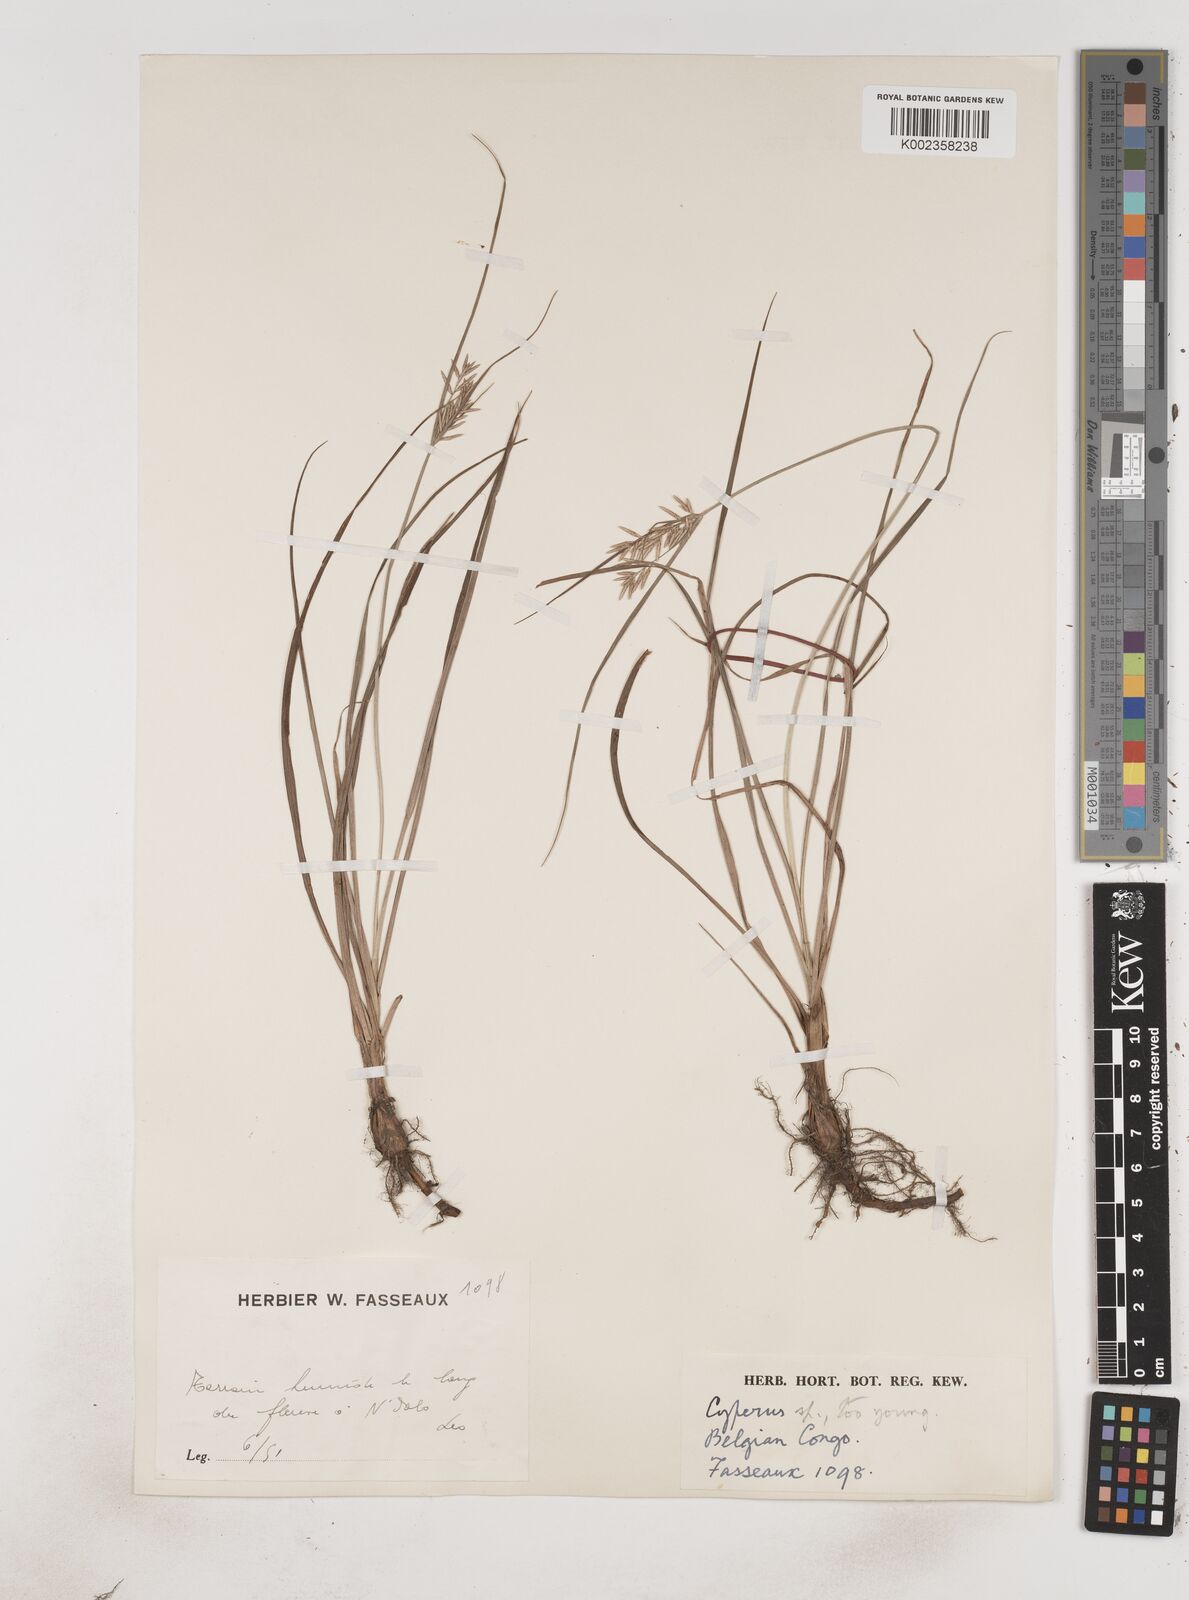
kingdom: Plantae
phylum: Tracheophyta
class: Liliopsida
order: Poales
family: Cyperaceae
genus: Cyperus
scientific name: Cyperus maculatus
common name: Maculated sedge
